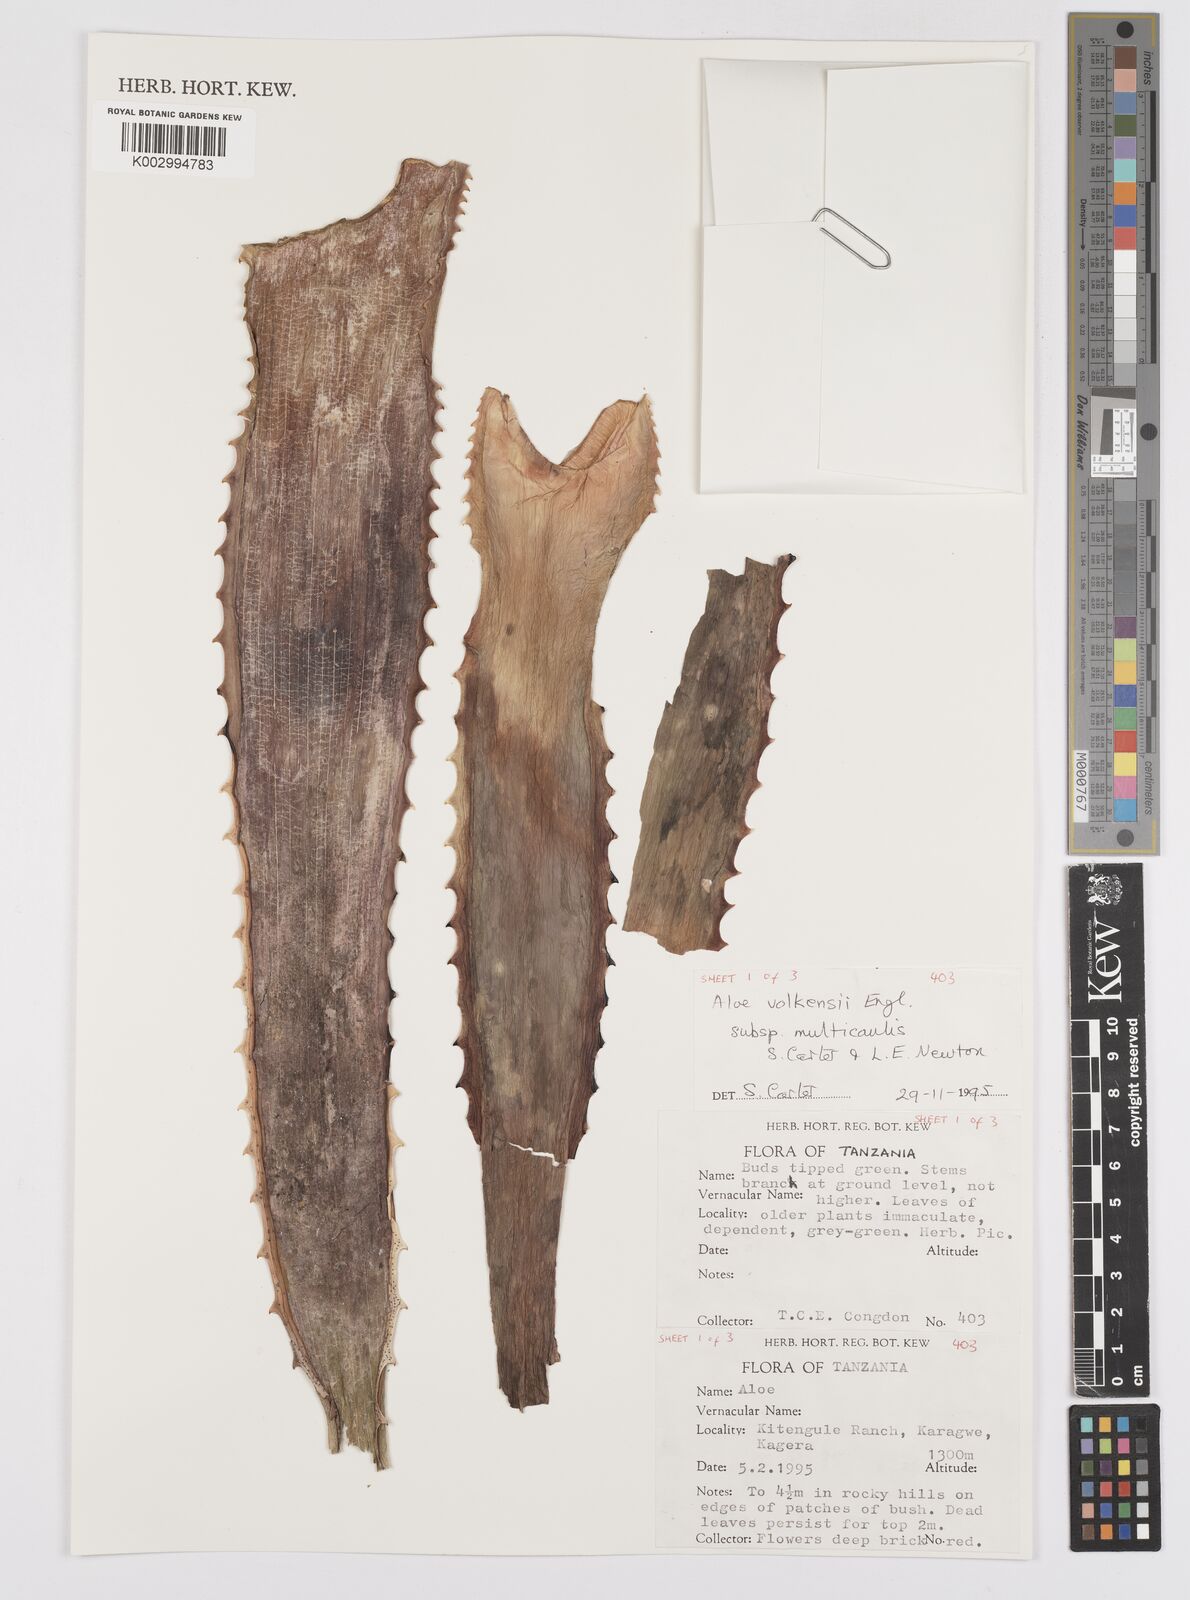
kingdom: Plantae
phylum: Tracheophyta
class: Liliopsida
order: Asparagales
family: Asphodelaceae
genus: Aloe
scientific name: Aloe volkensii
